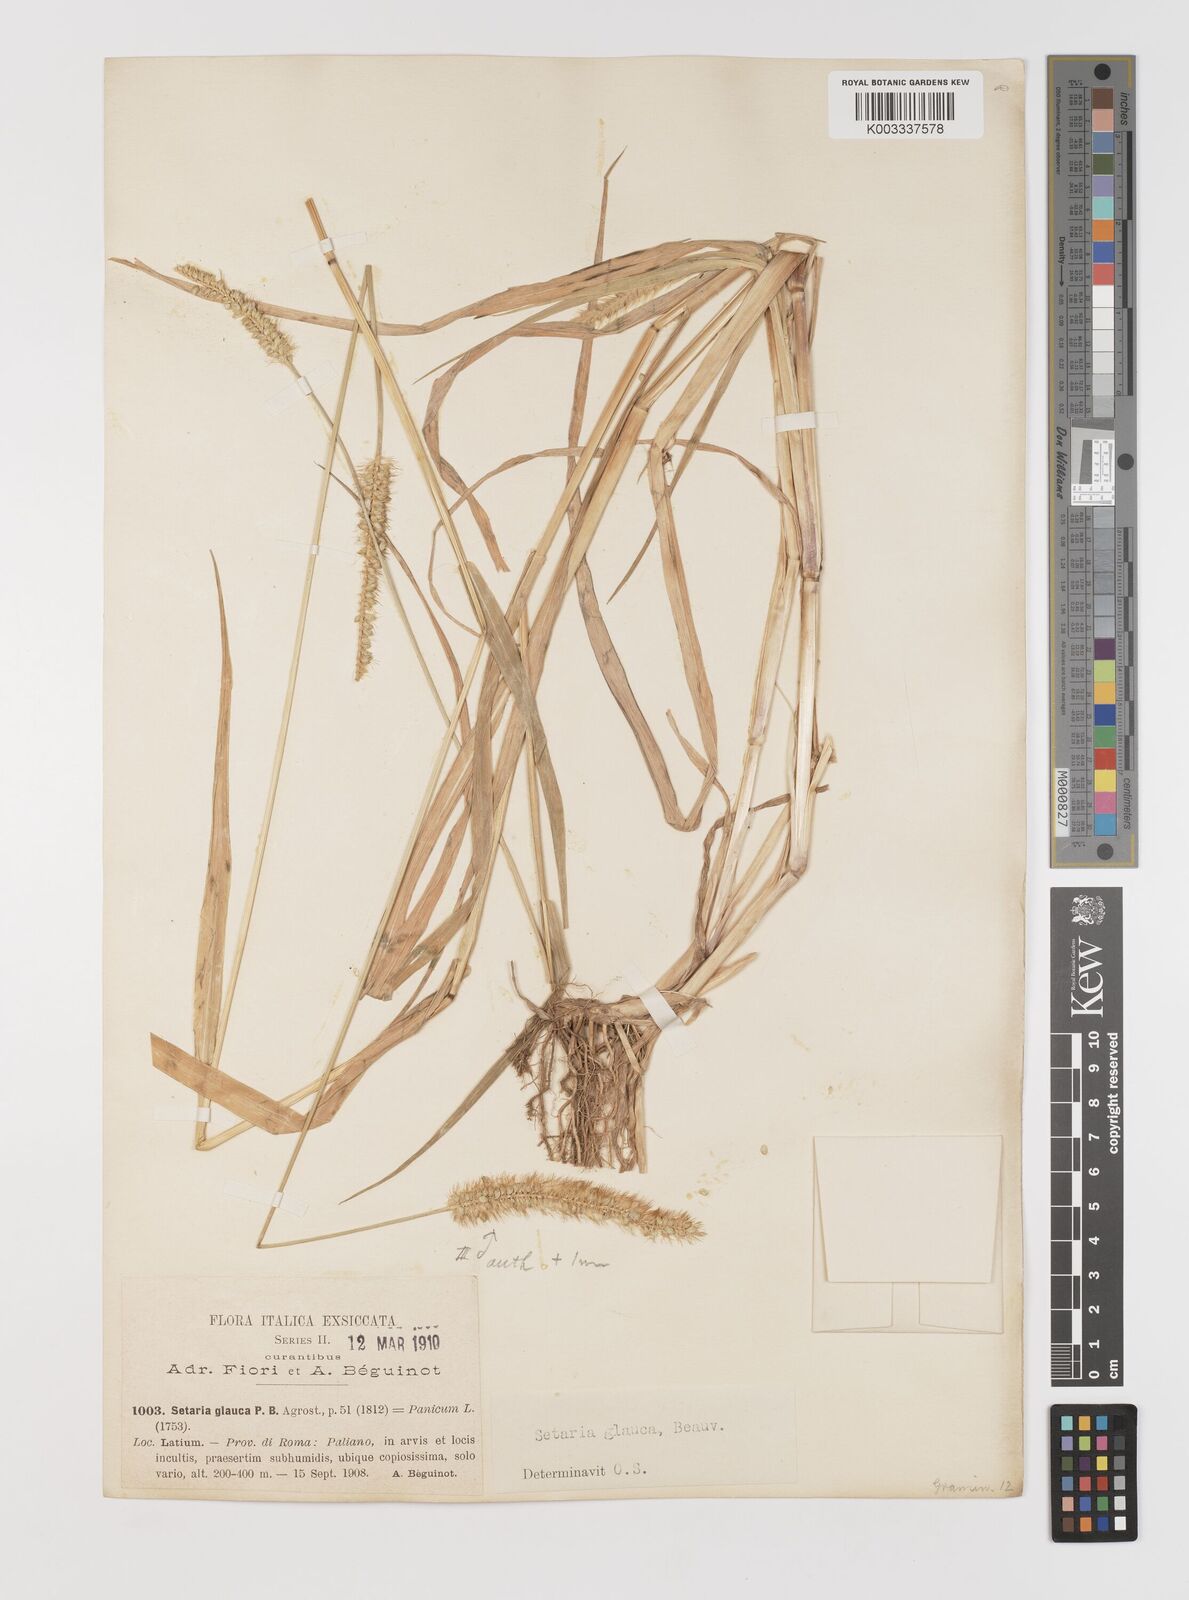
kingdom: Plantae
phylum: Tracheophyta
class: Liliopsida
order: Poales
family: Poaceae
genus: Setaria
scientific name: Setaria pumila
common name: Yellow bristle-grass
